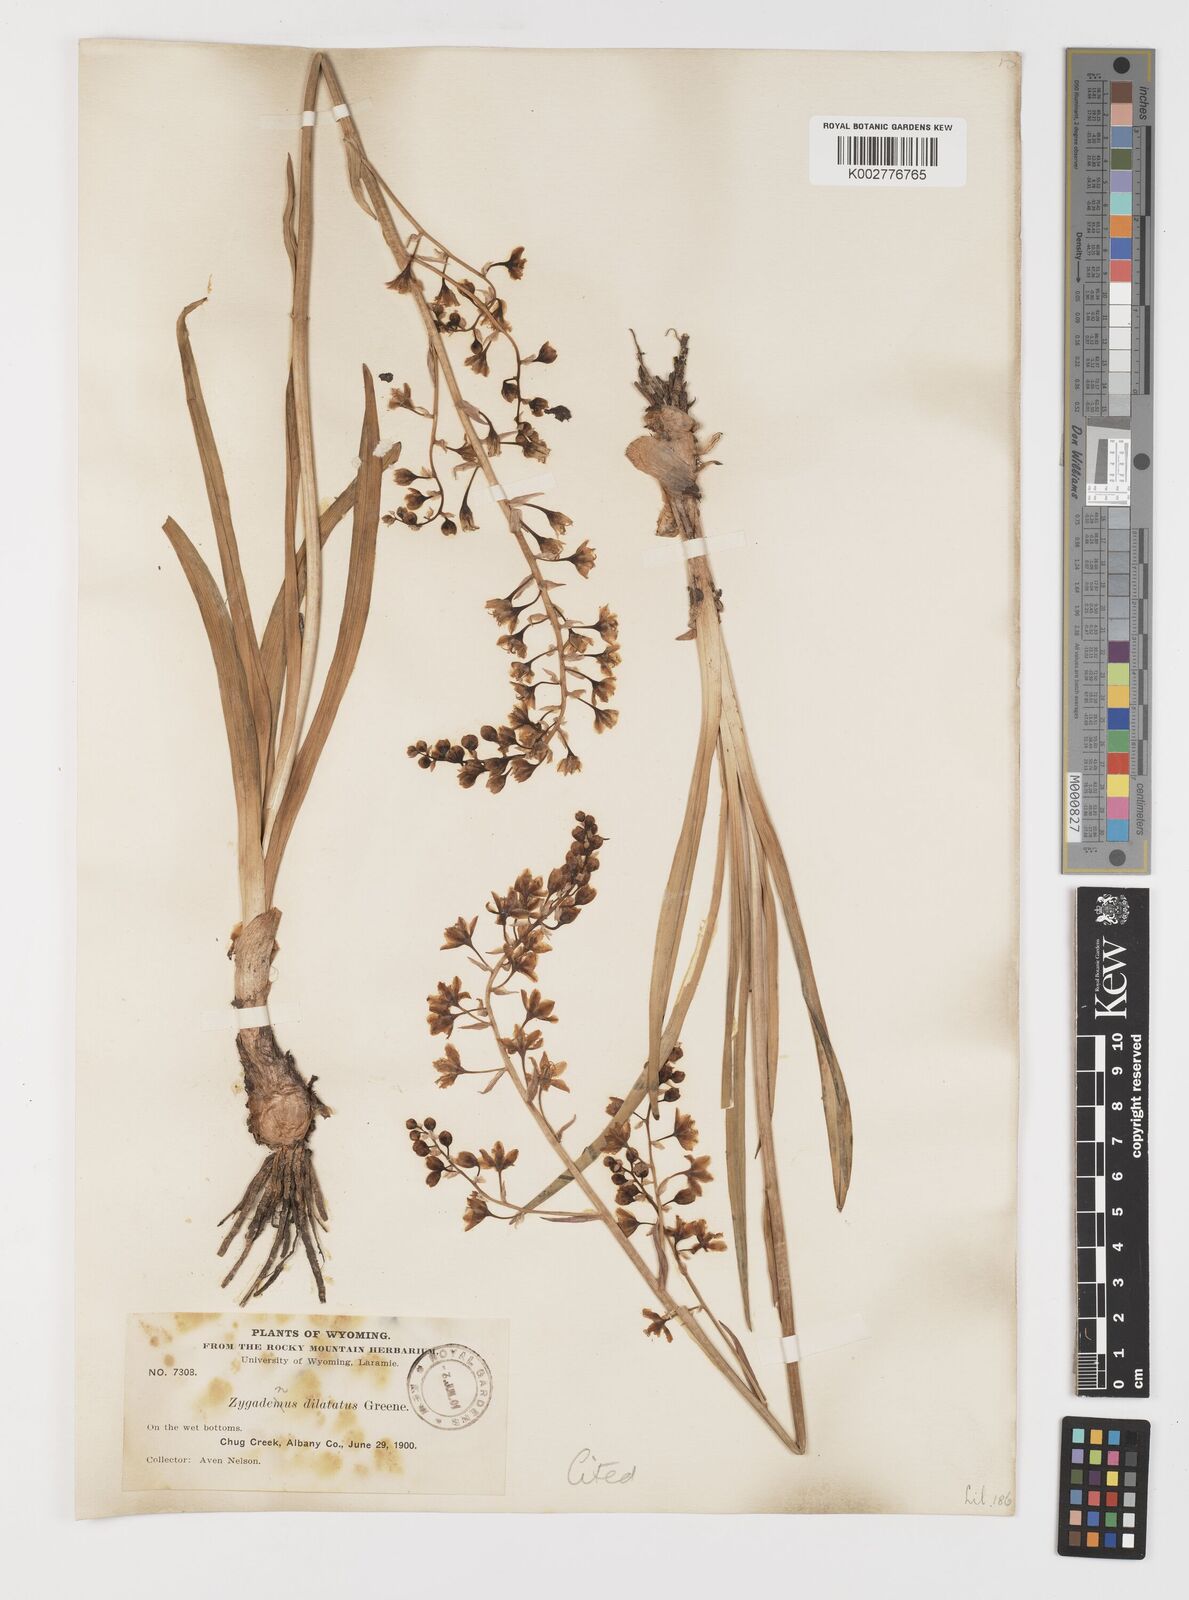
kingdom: Plantae
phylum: Tracheophyta
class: Liliopsida
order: Liliales
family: Melanthiaceae
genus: Anticlea
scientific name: Anticlea elegans
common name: Mountain death camas
